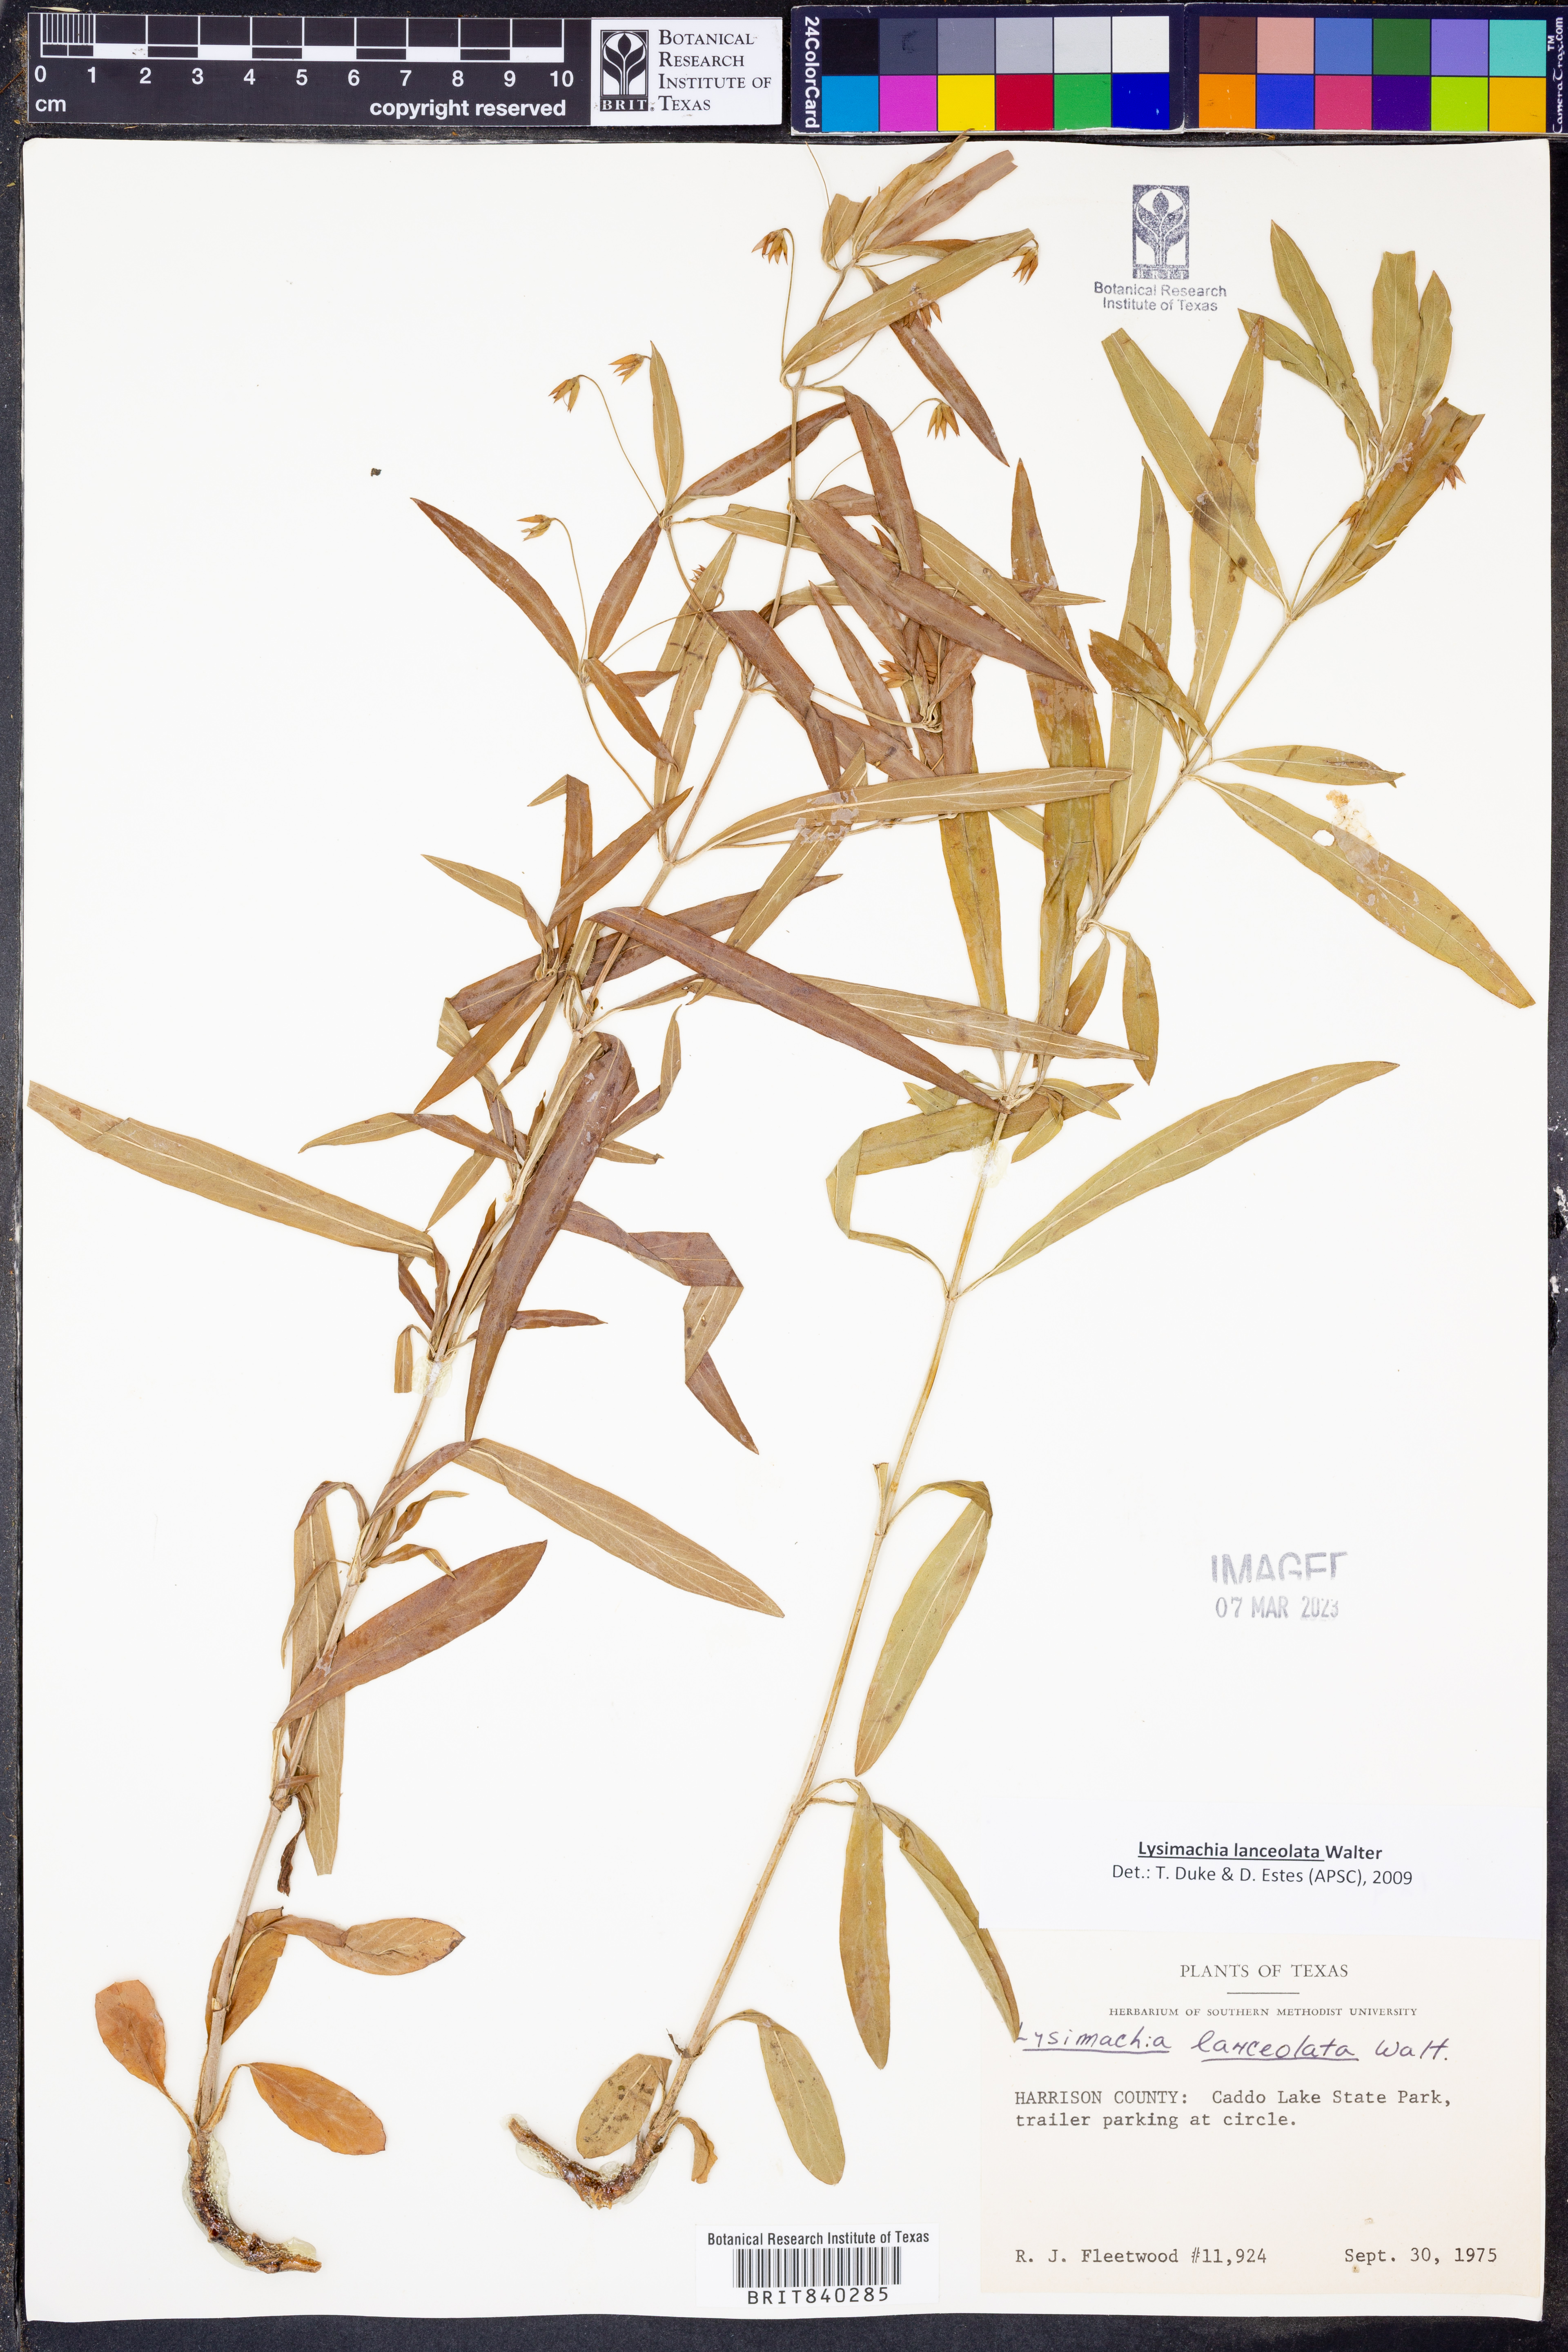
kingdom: Plantae
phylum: Tracheophyta
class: Magnoliopsida
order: Ericales
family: Primulaceae
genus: Lysimachia
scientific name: Lysimachia lanceolata
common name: Lance-leaved loosestrife
